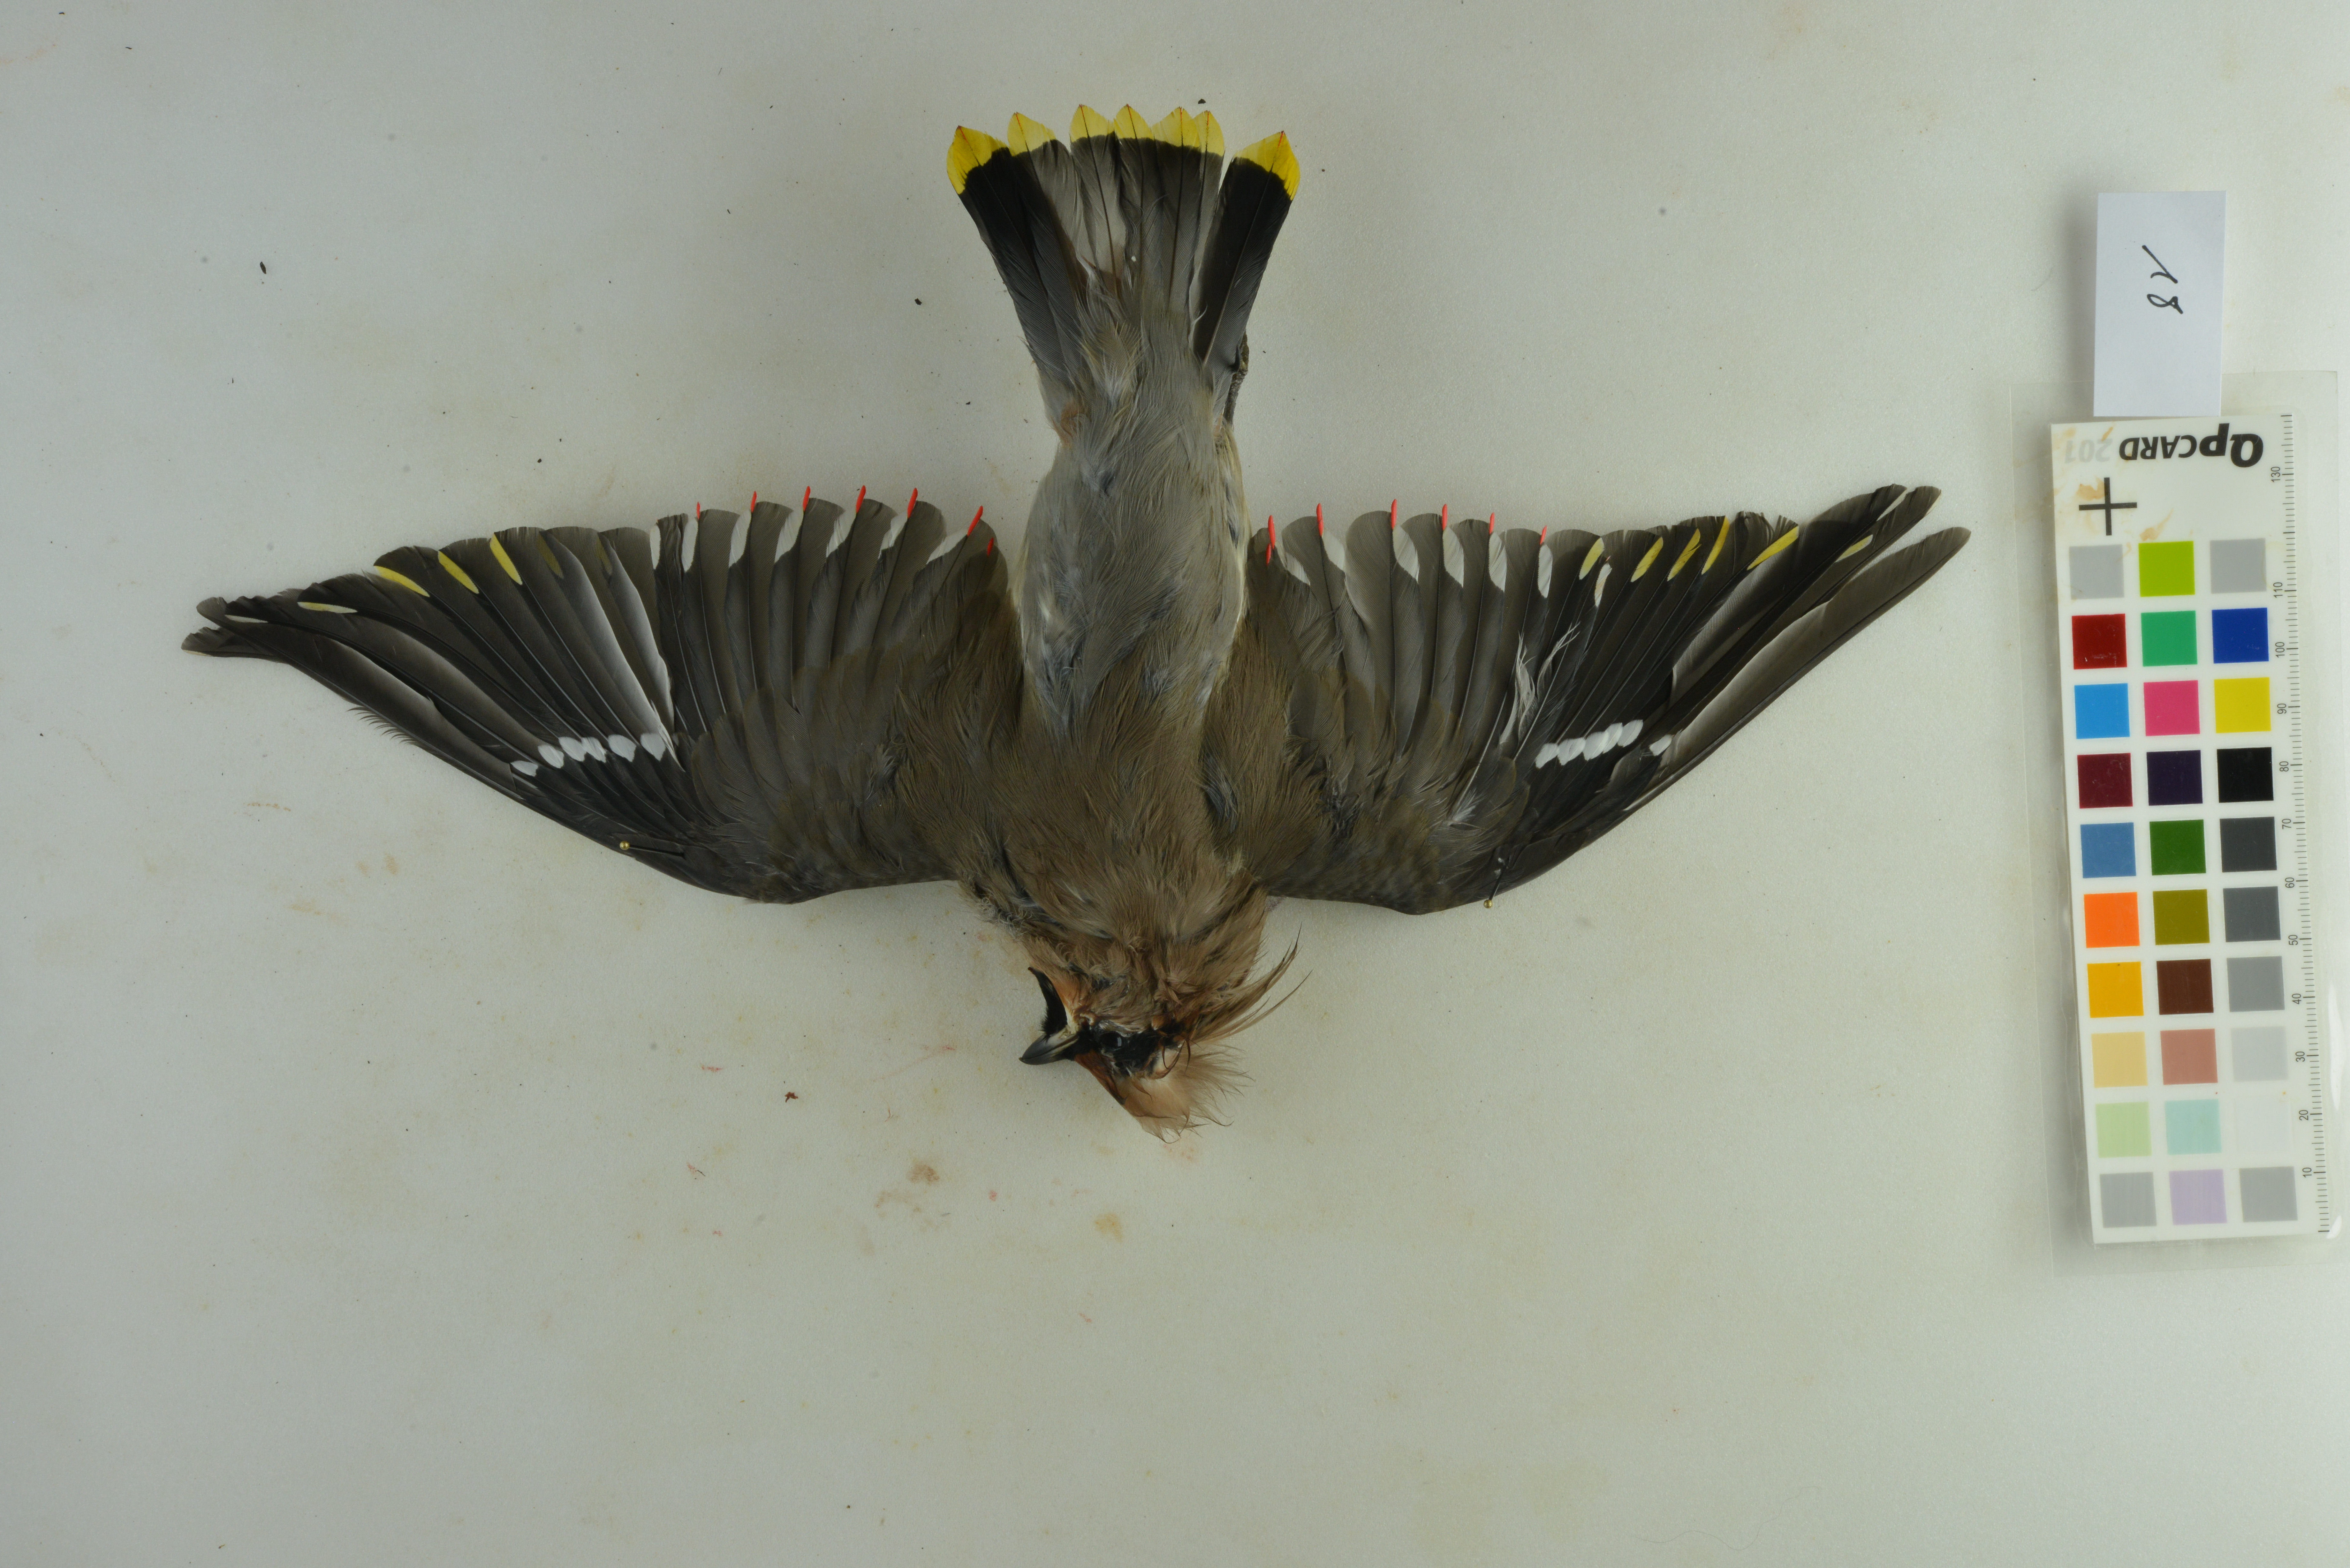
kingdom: Animalia
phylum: Chordata
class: Aves
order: Passeriformes
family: Bombycillidae
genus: Bombycilla
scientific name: Bombycilla garrulus
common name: Bohemian waxwing
